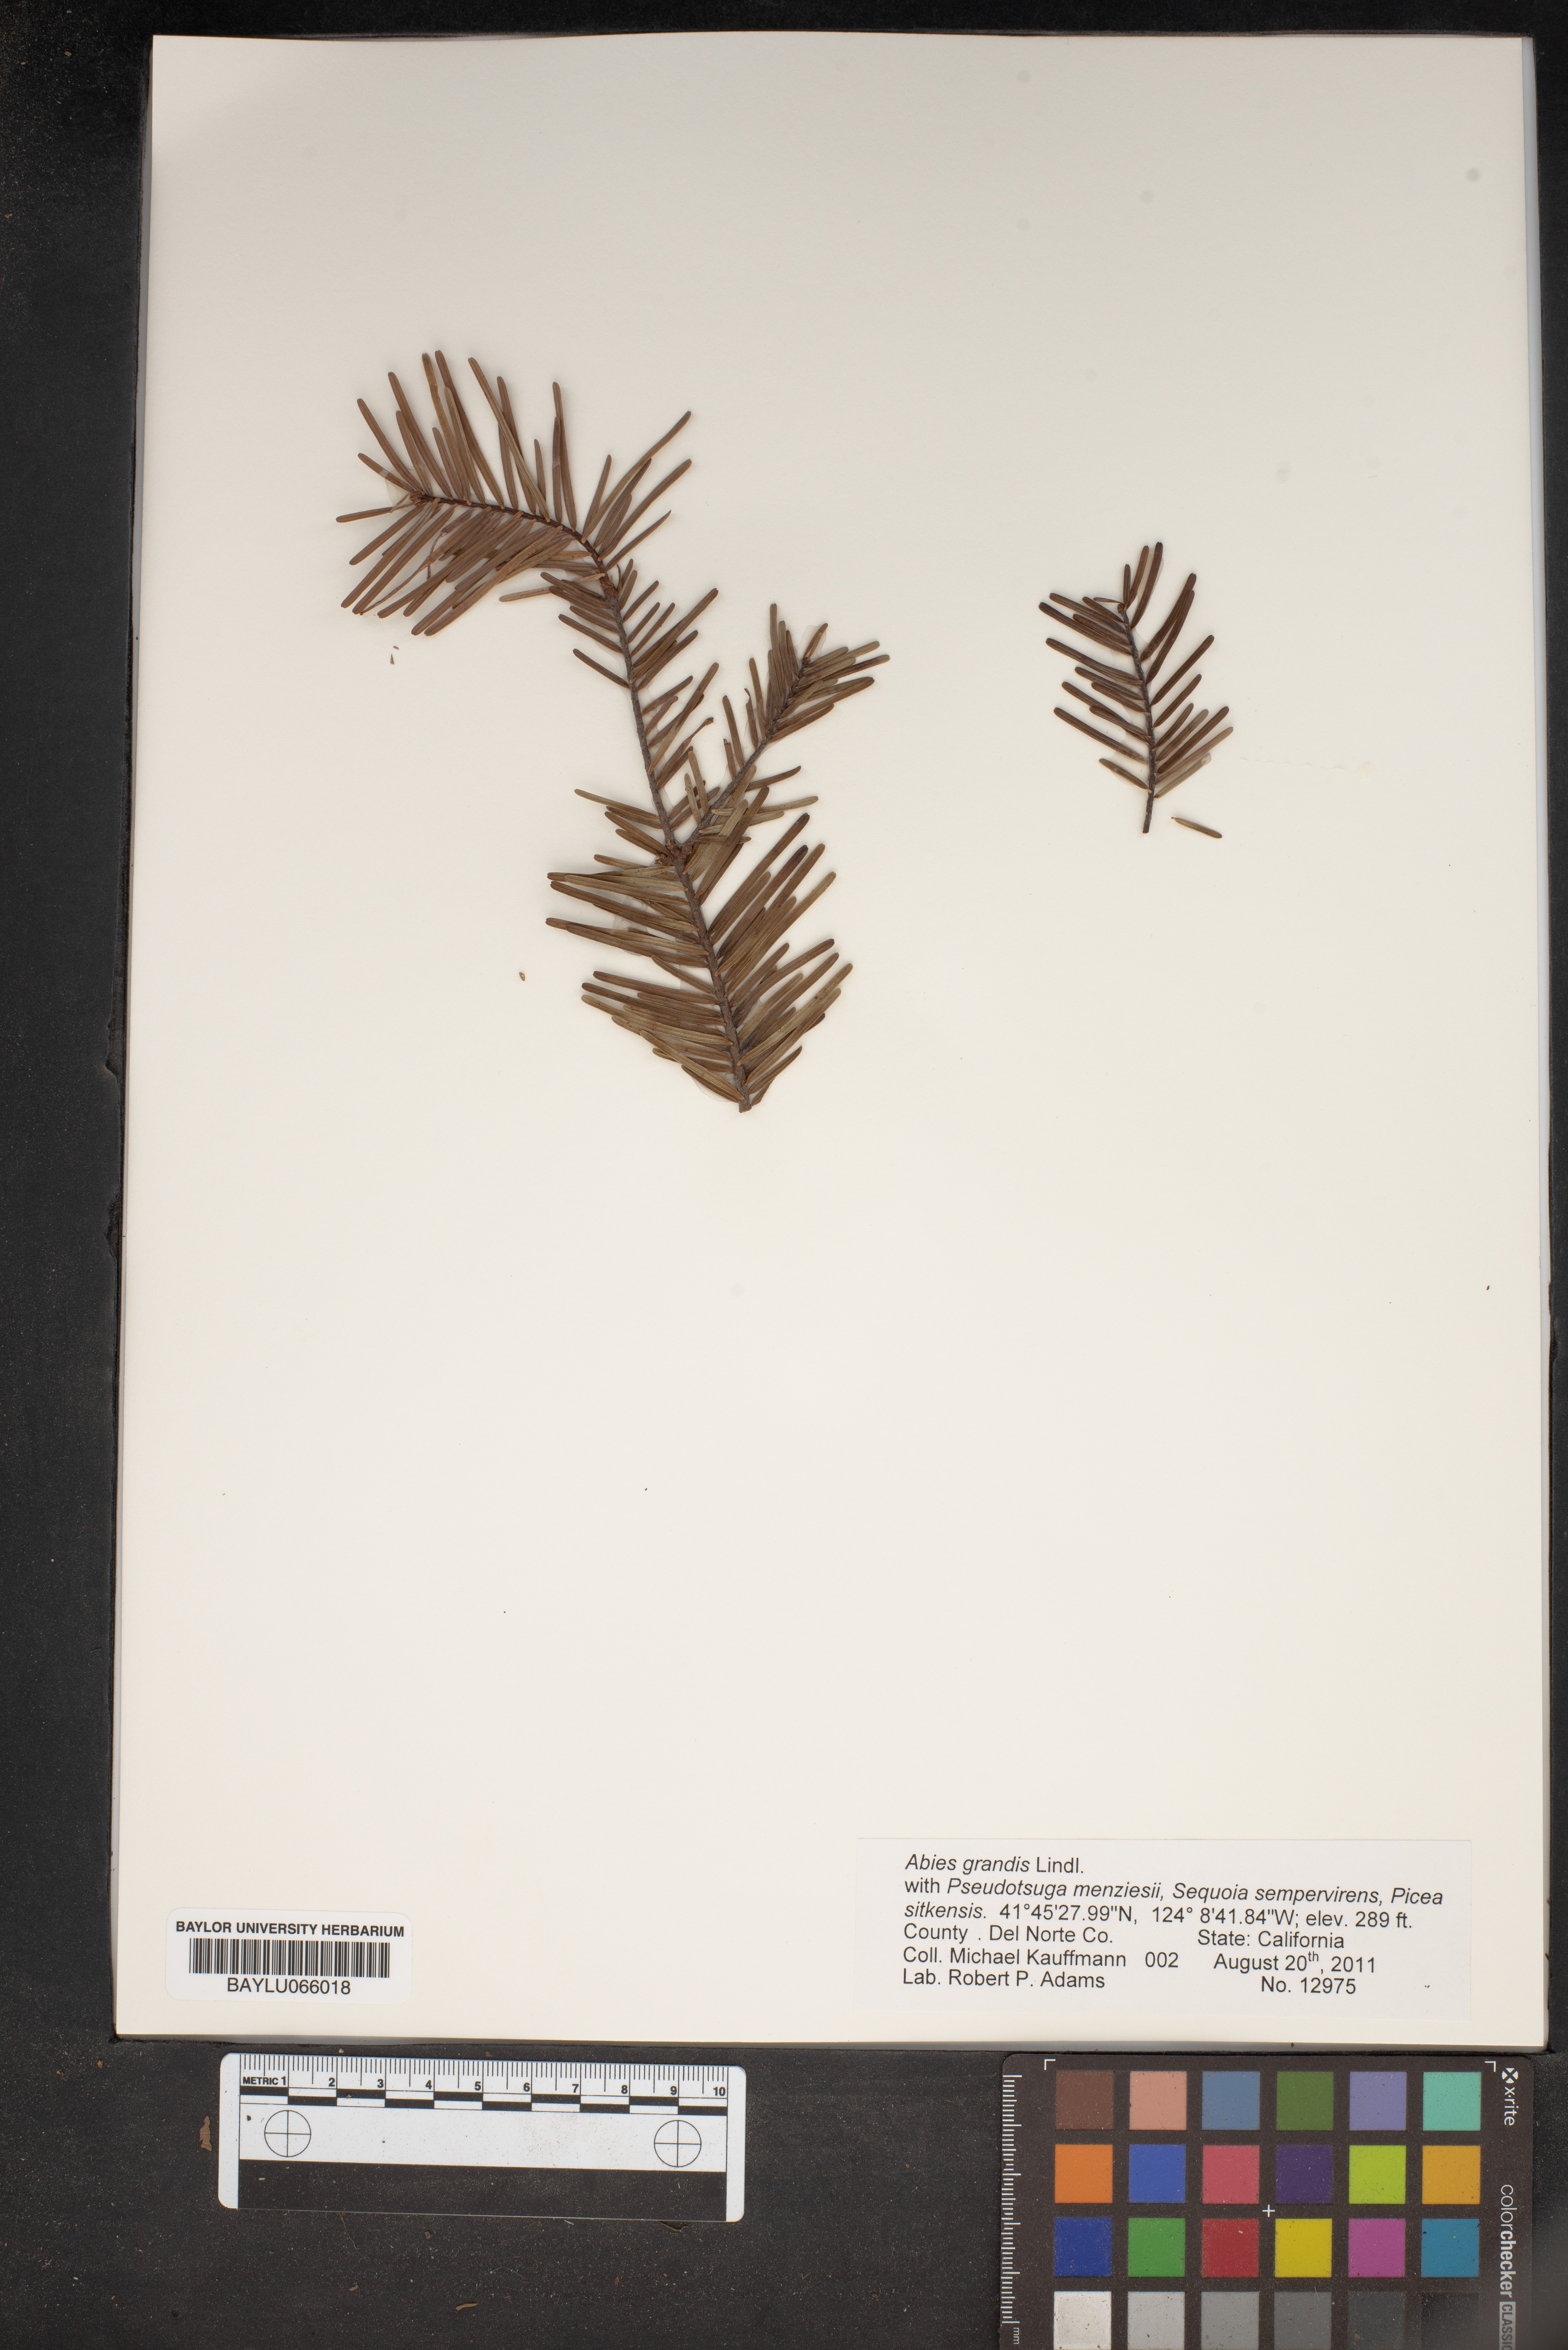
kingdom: Plantae
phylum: Tracheophyta
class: Pinopsida
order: Pinales
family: Pinaceae
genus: Abies
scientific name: Abies grandis
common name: Giant fir
